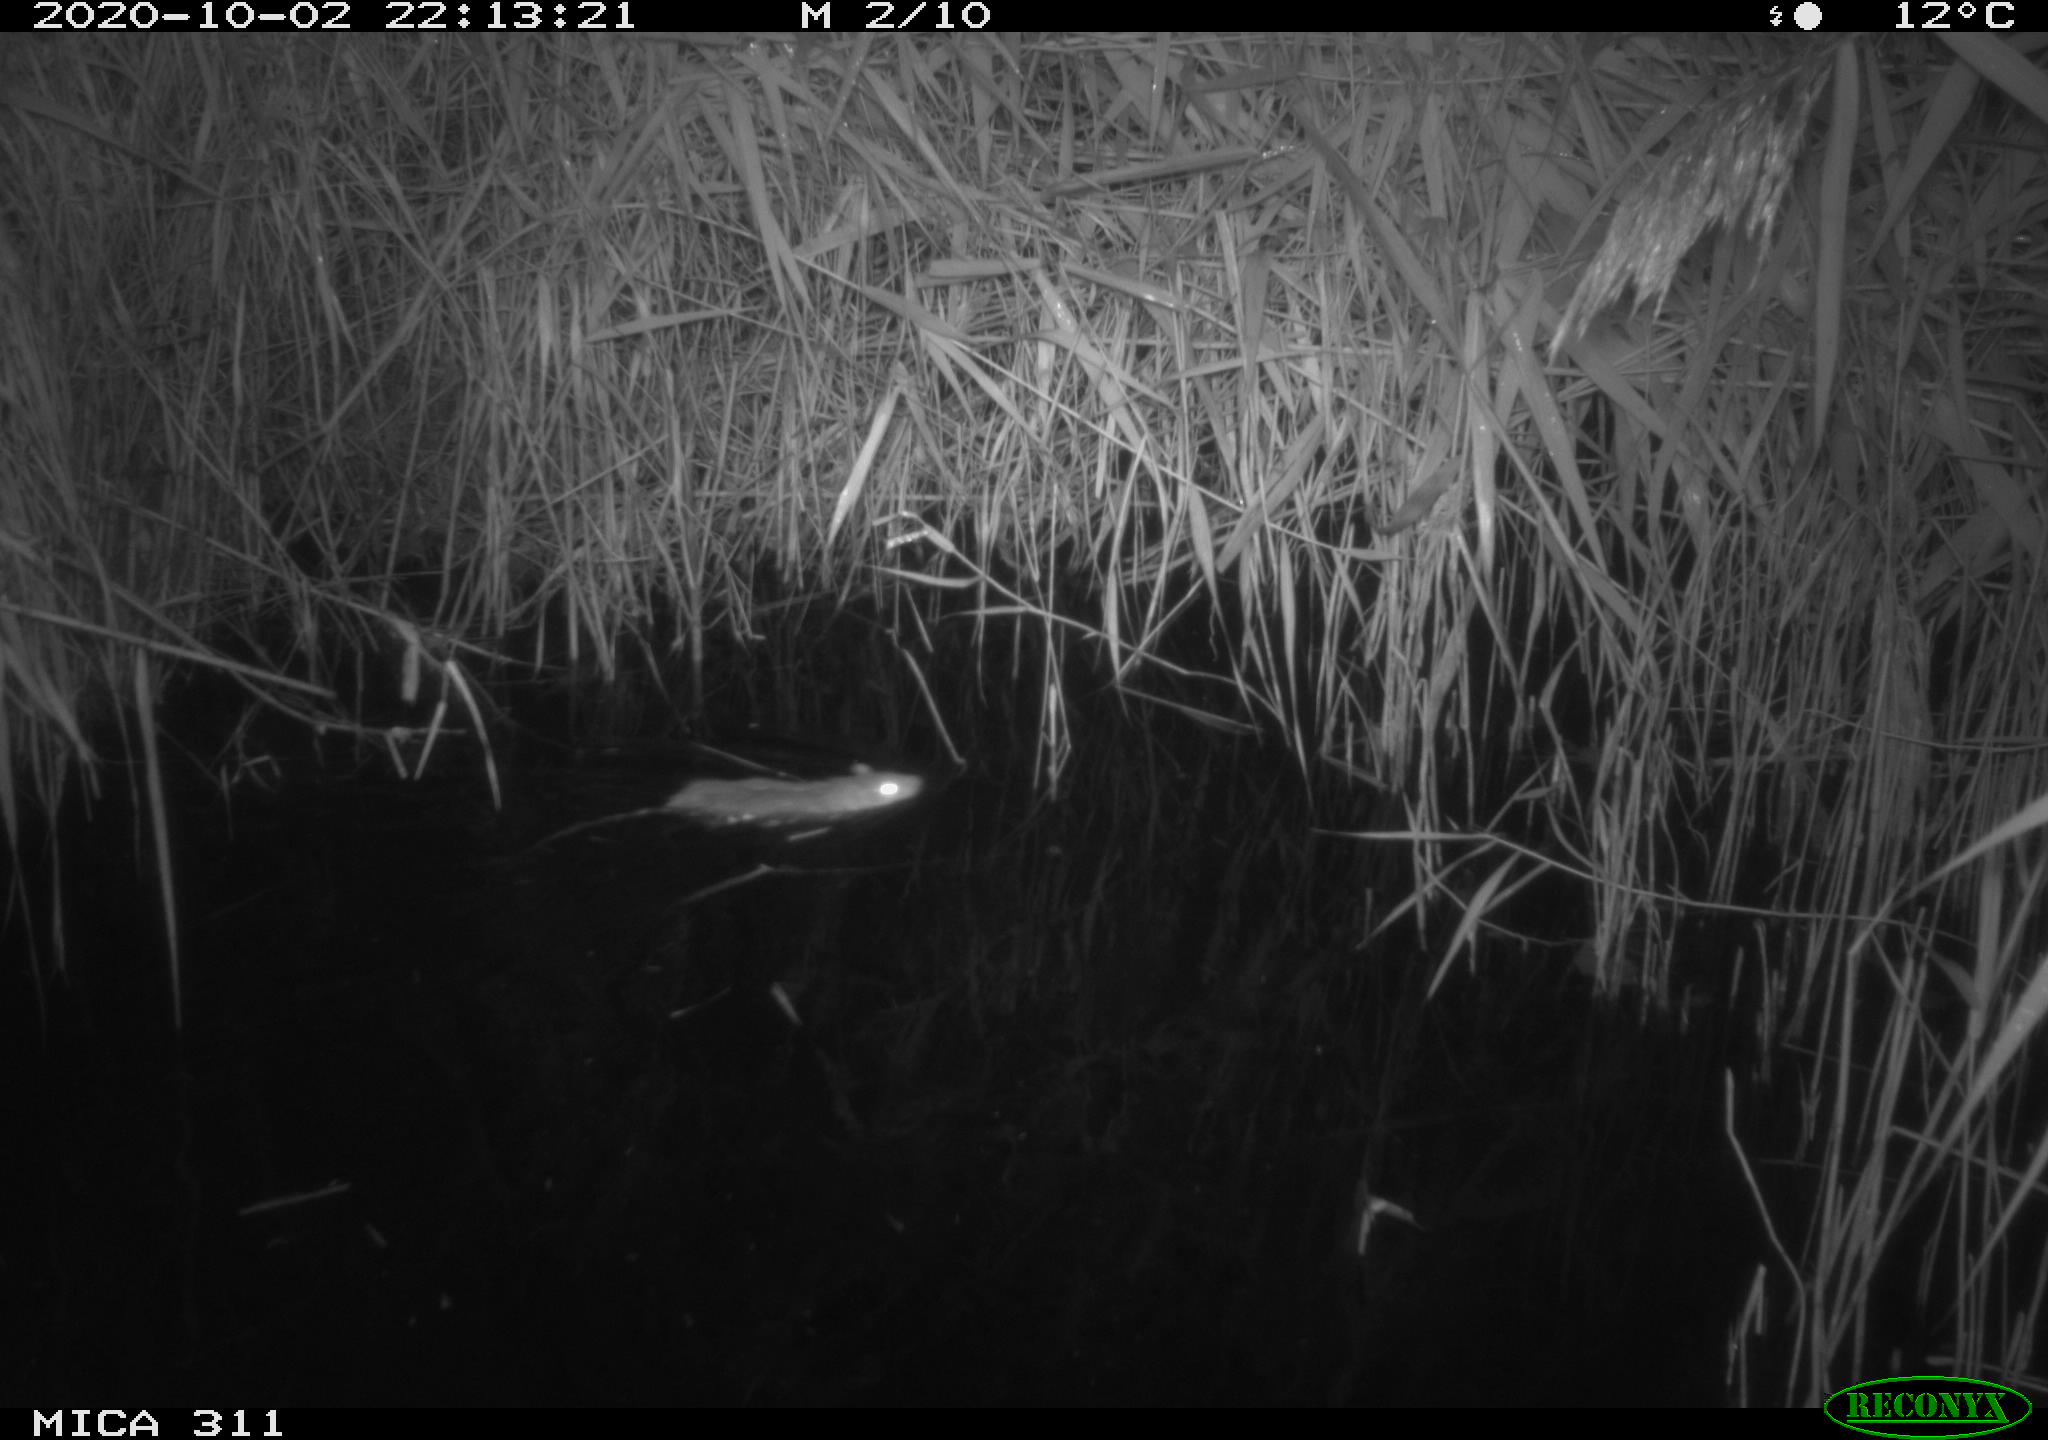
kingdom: Animalia
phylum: Chordata
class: Mammalia
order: Rodentia
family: Muridae
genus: Rattus
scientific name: Rattus norvegicus
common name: Brown rat
